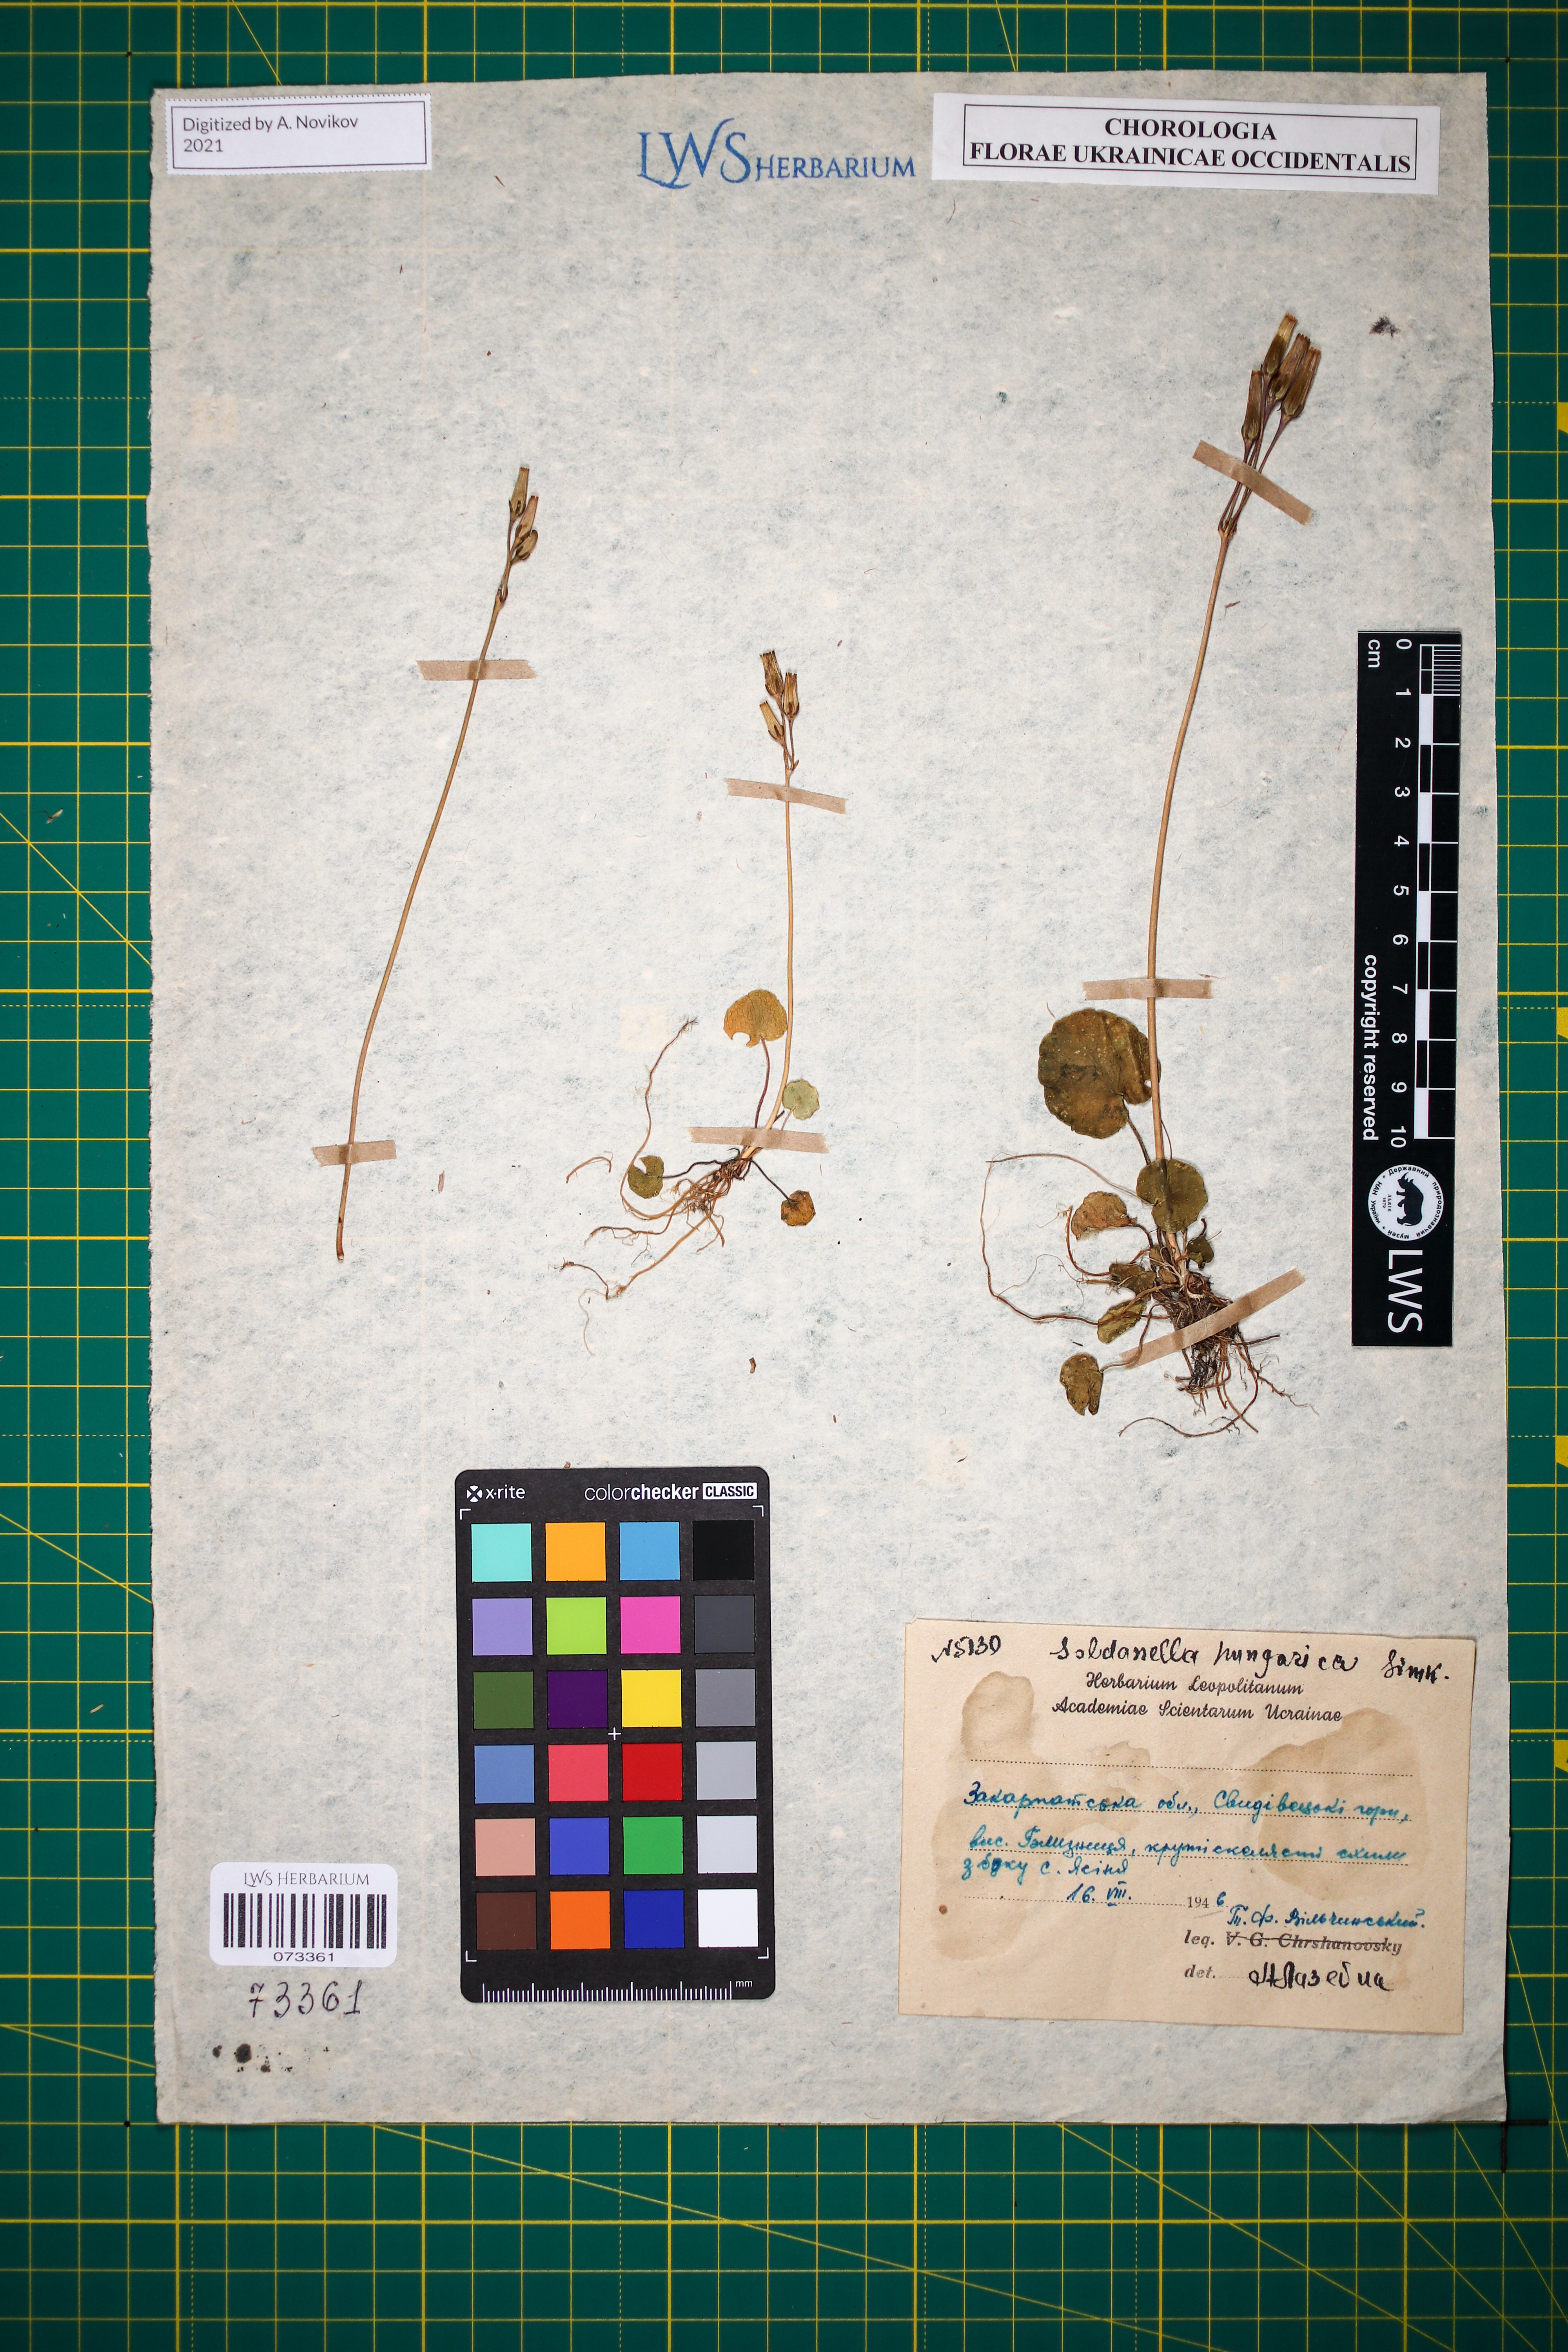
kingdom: Plantae
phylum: Tracheophyta
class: Magnoliopsida
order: Ericales
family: Primulaceae
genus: Soldanella
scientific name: Soldanella hungarica
